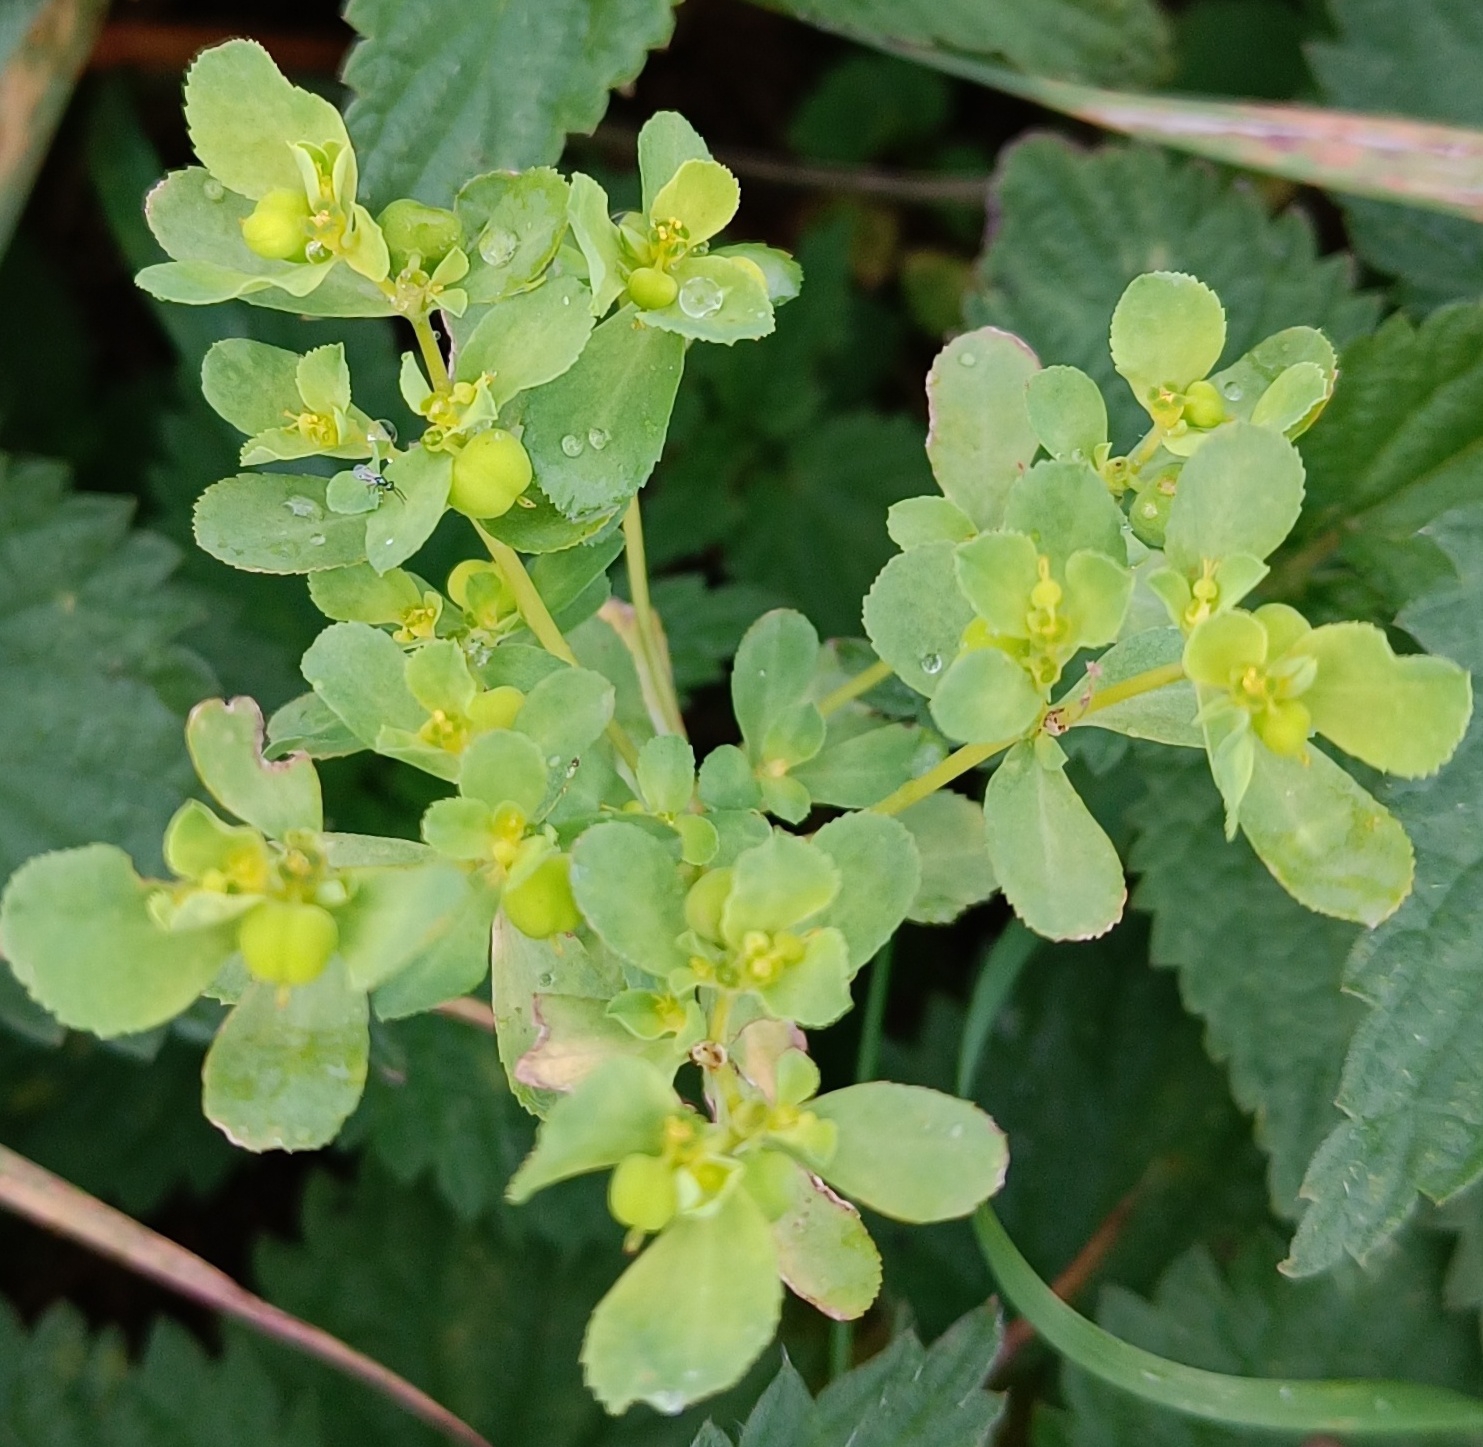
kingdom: Plantae
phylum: Tracheophyta
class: Magnoliopsida
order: Malpighiales
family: Euphorbiaceae
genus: Euphorbia
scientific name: Euphorbia helioscopia
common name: Skærm-vortemælk
